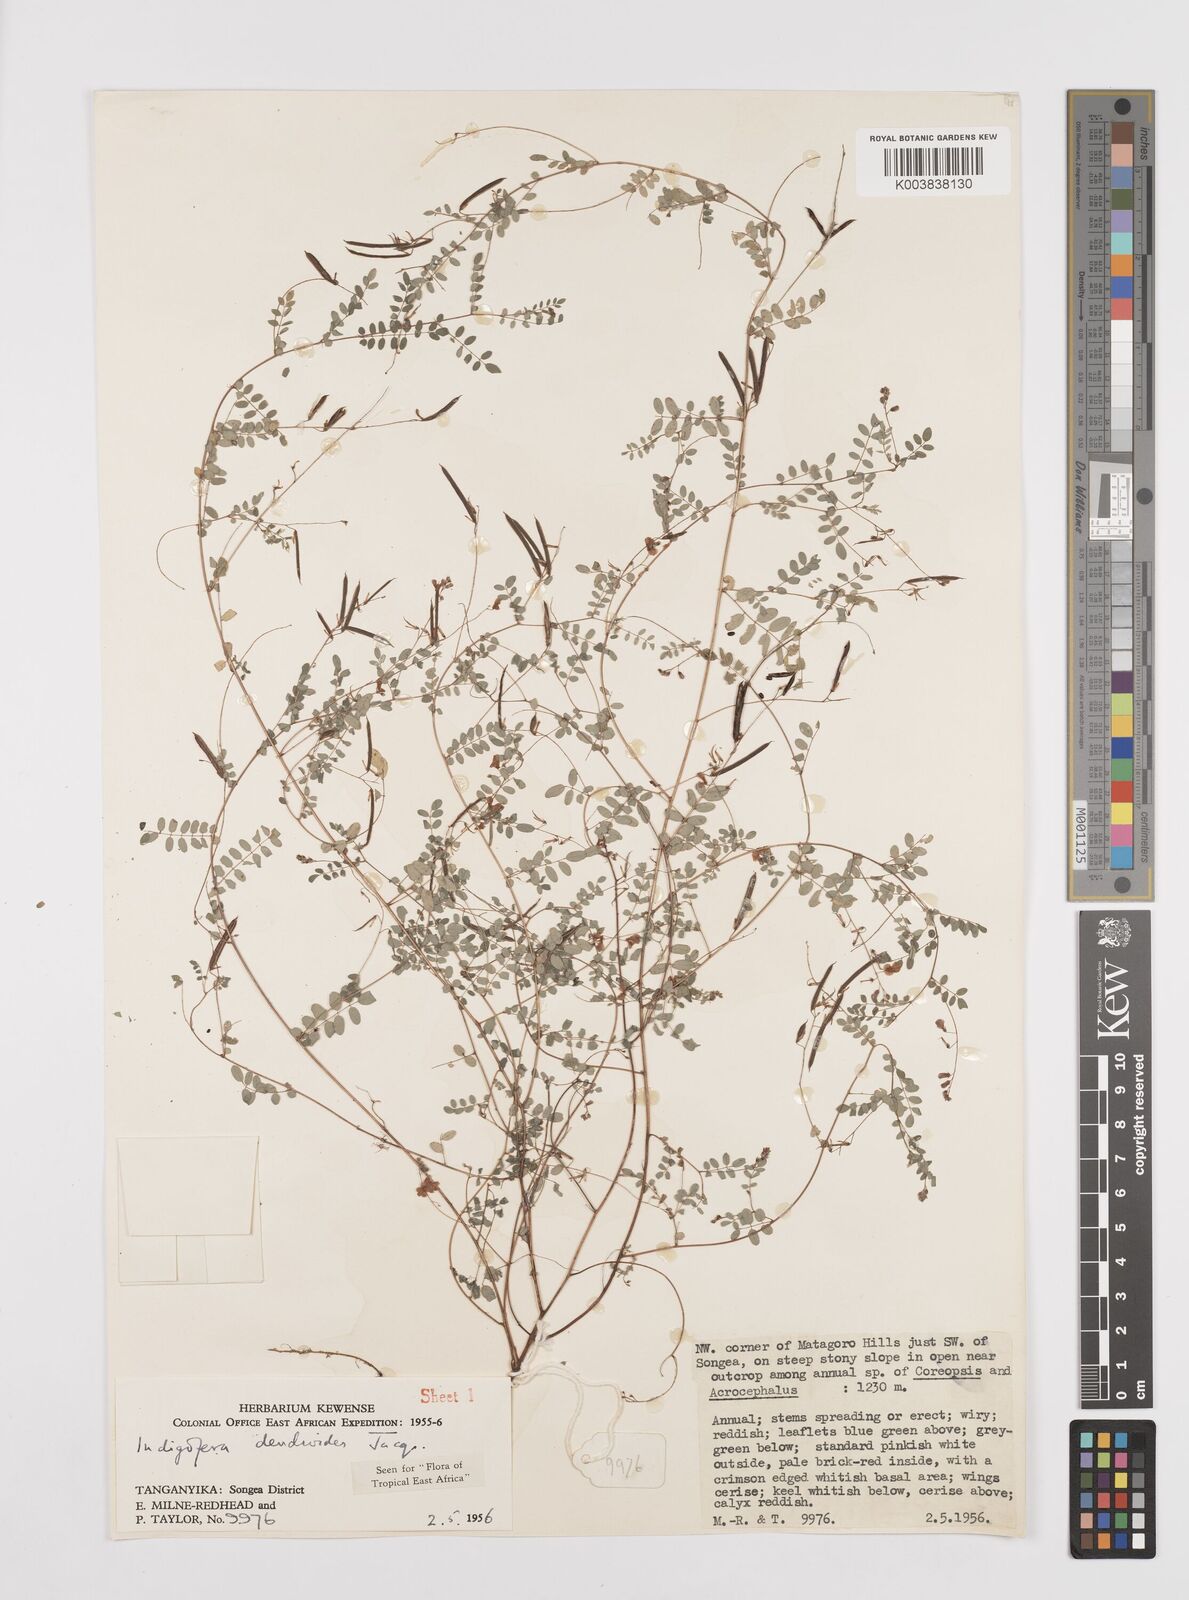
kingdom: Plantae
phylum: Tracheophyta
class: Magnoliopsida
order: Fabales
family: Fabaceae
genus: Indigofera
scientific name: Indigofera dendroides
